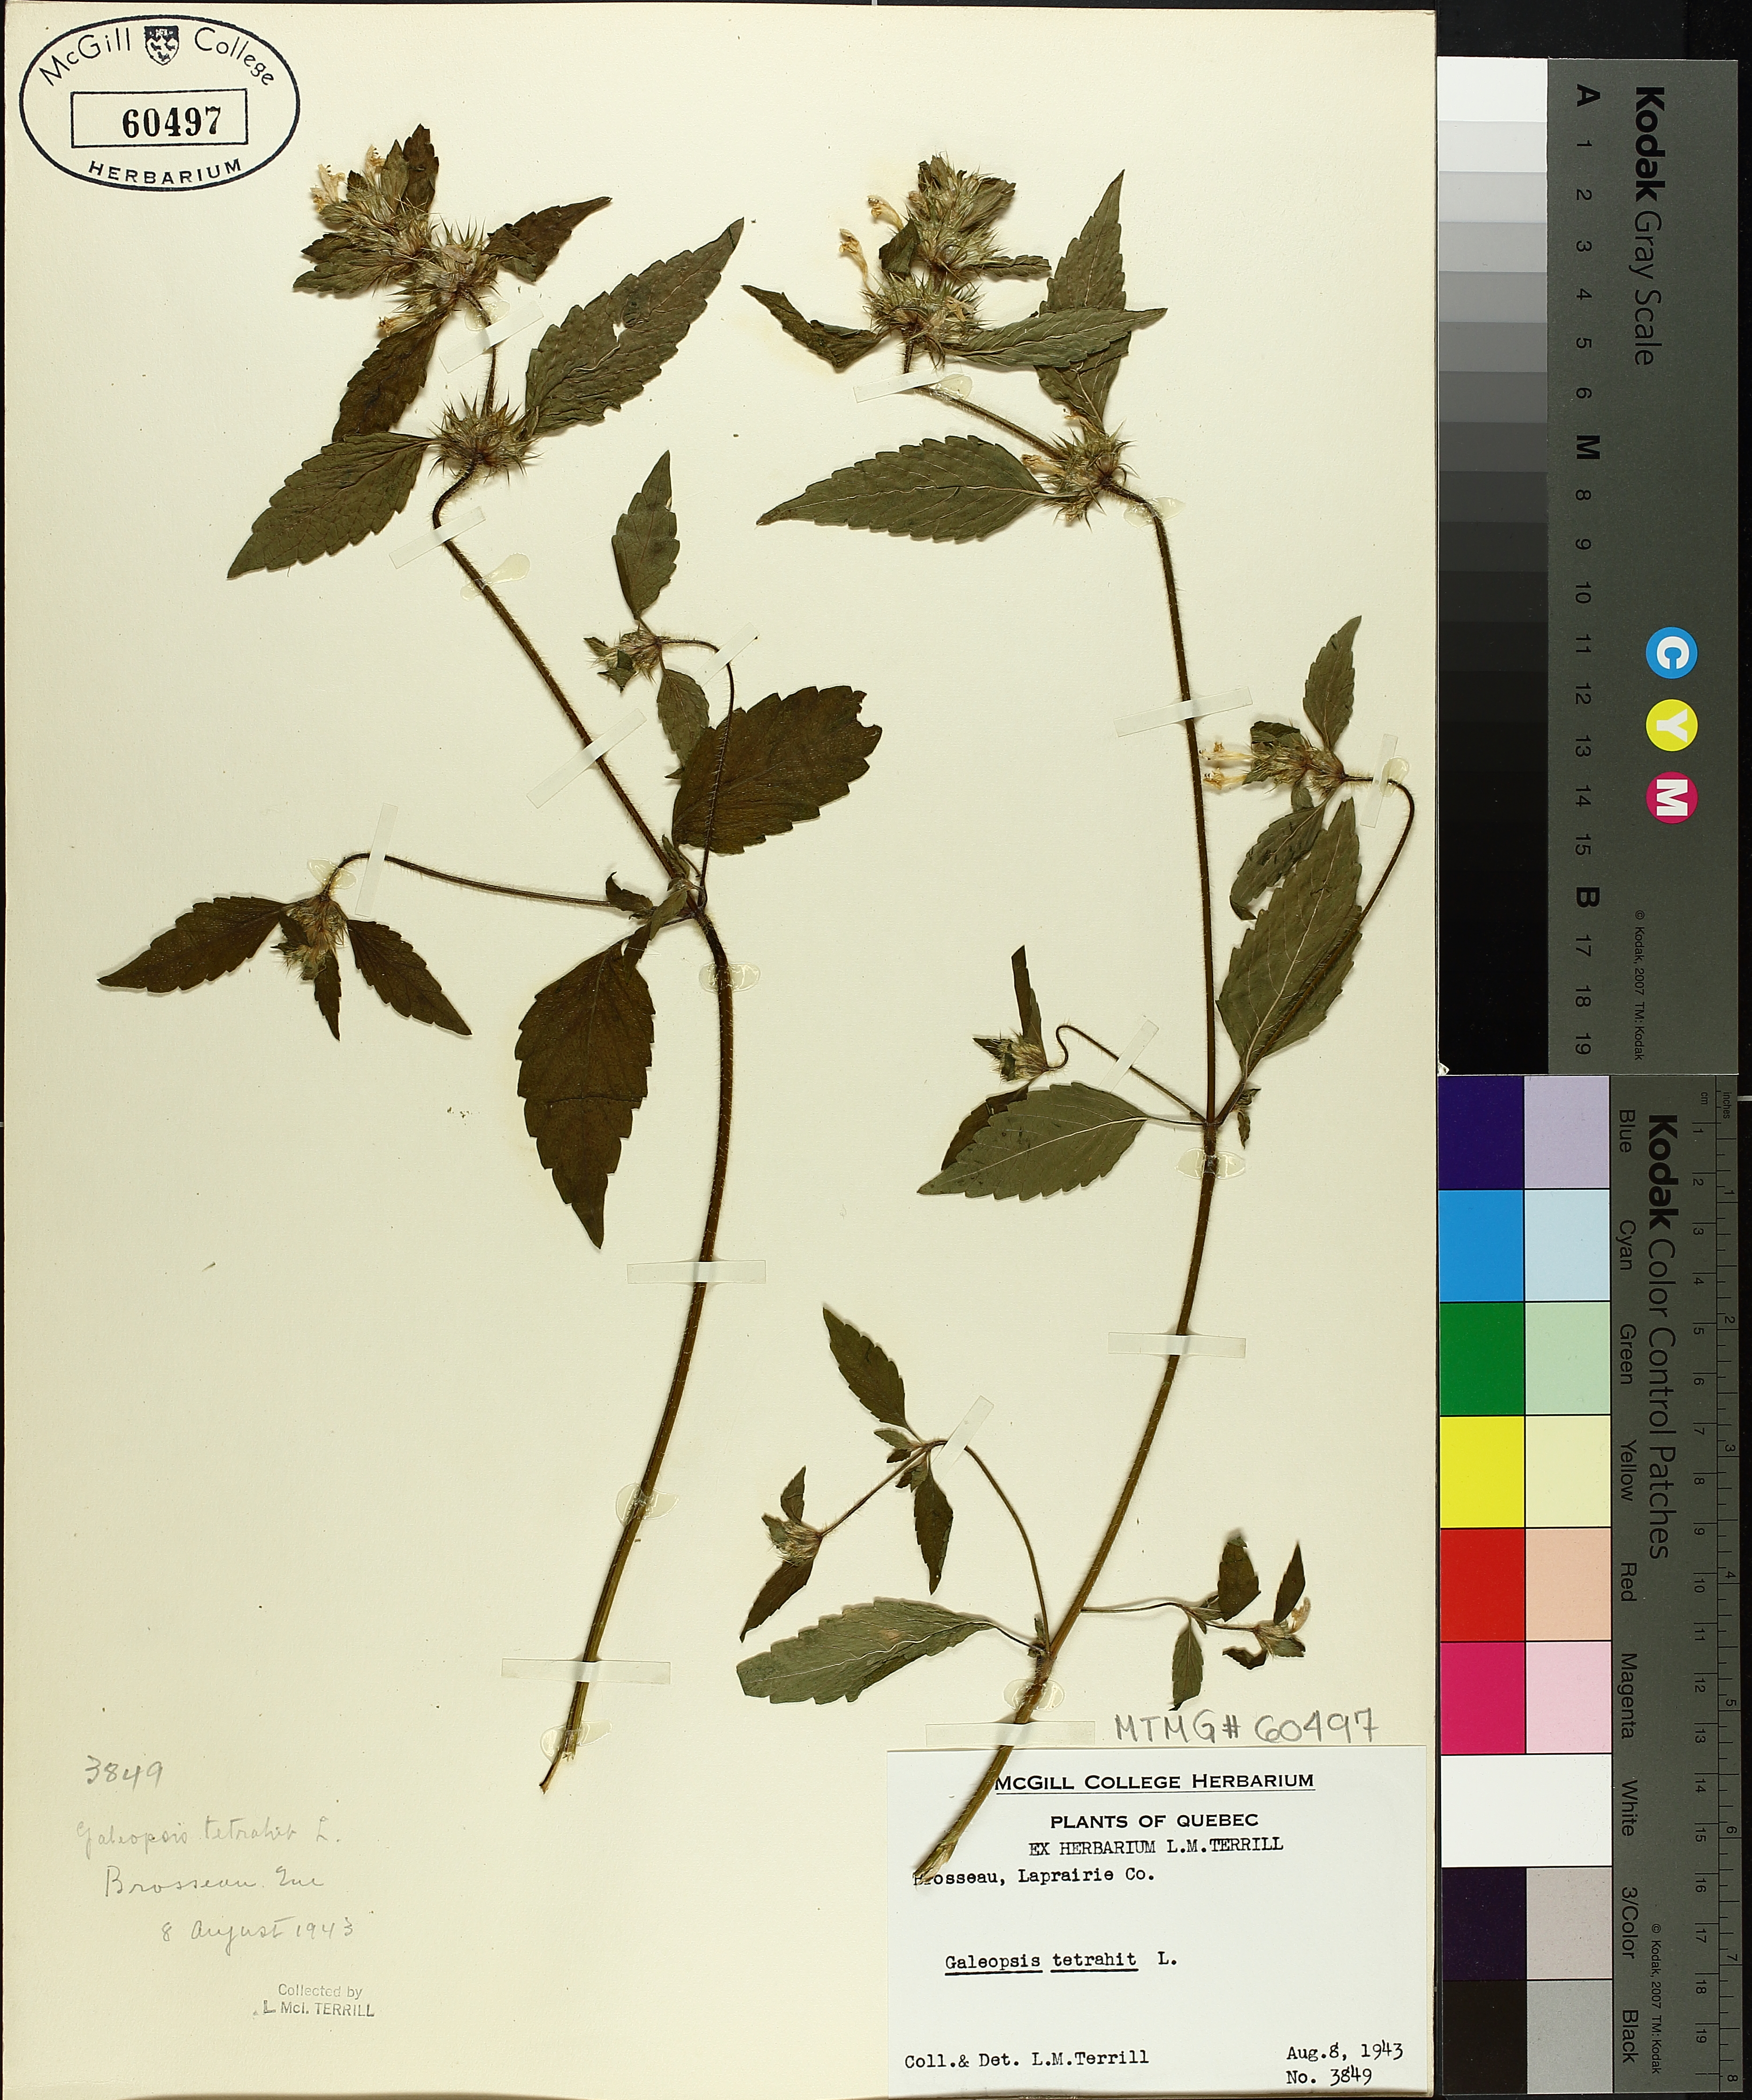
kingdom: Plantae
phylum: Tracheophyta
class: Magnoliopsida
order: Lamiales
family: Lamiaceae
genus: Galeopsis
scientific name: Galeopsis tetrahit
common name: Common hemp-nettle
